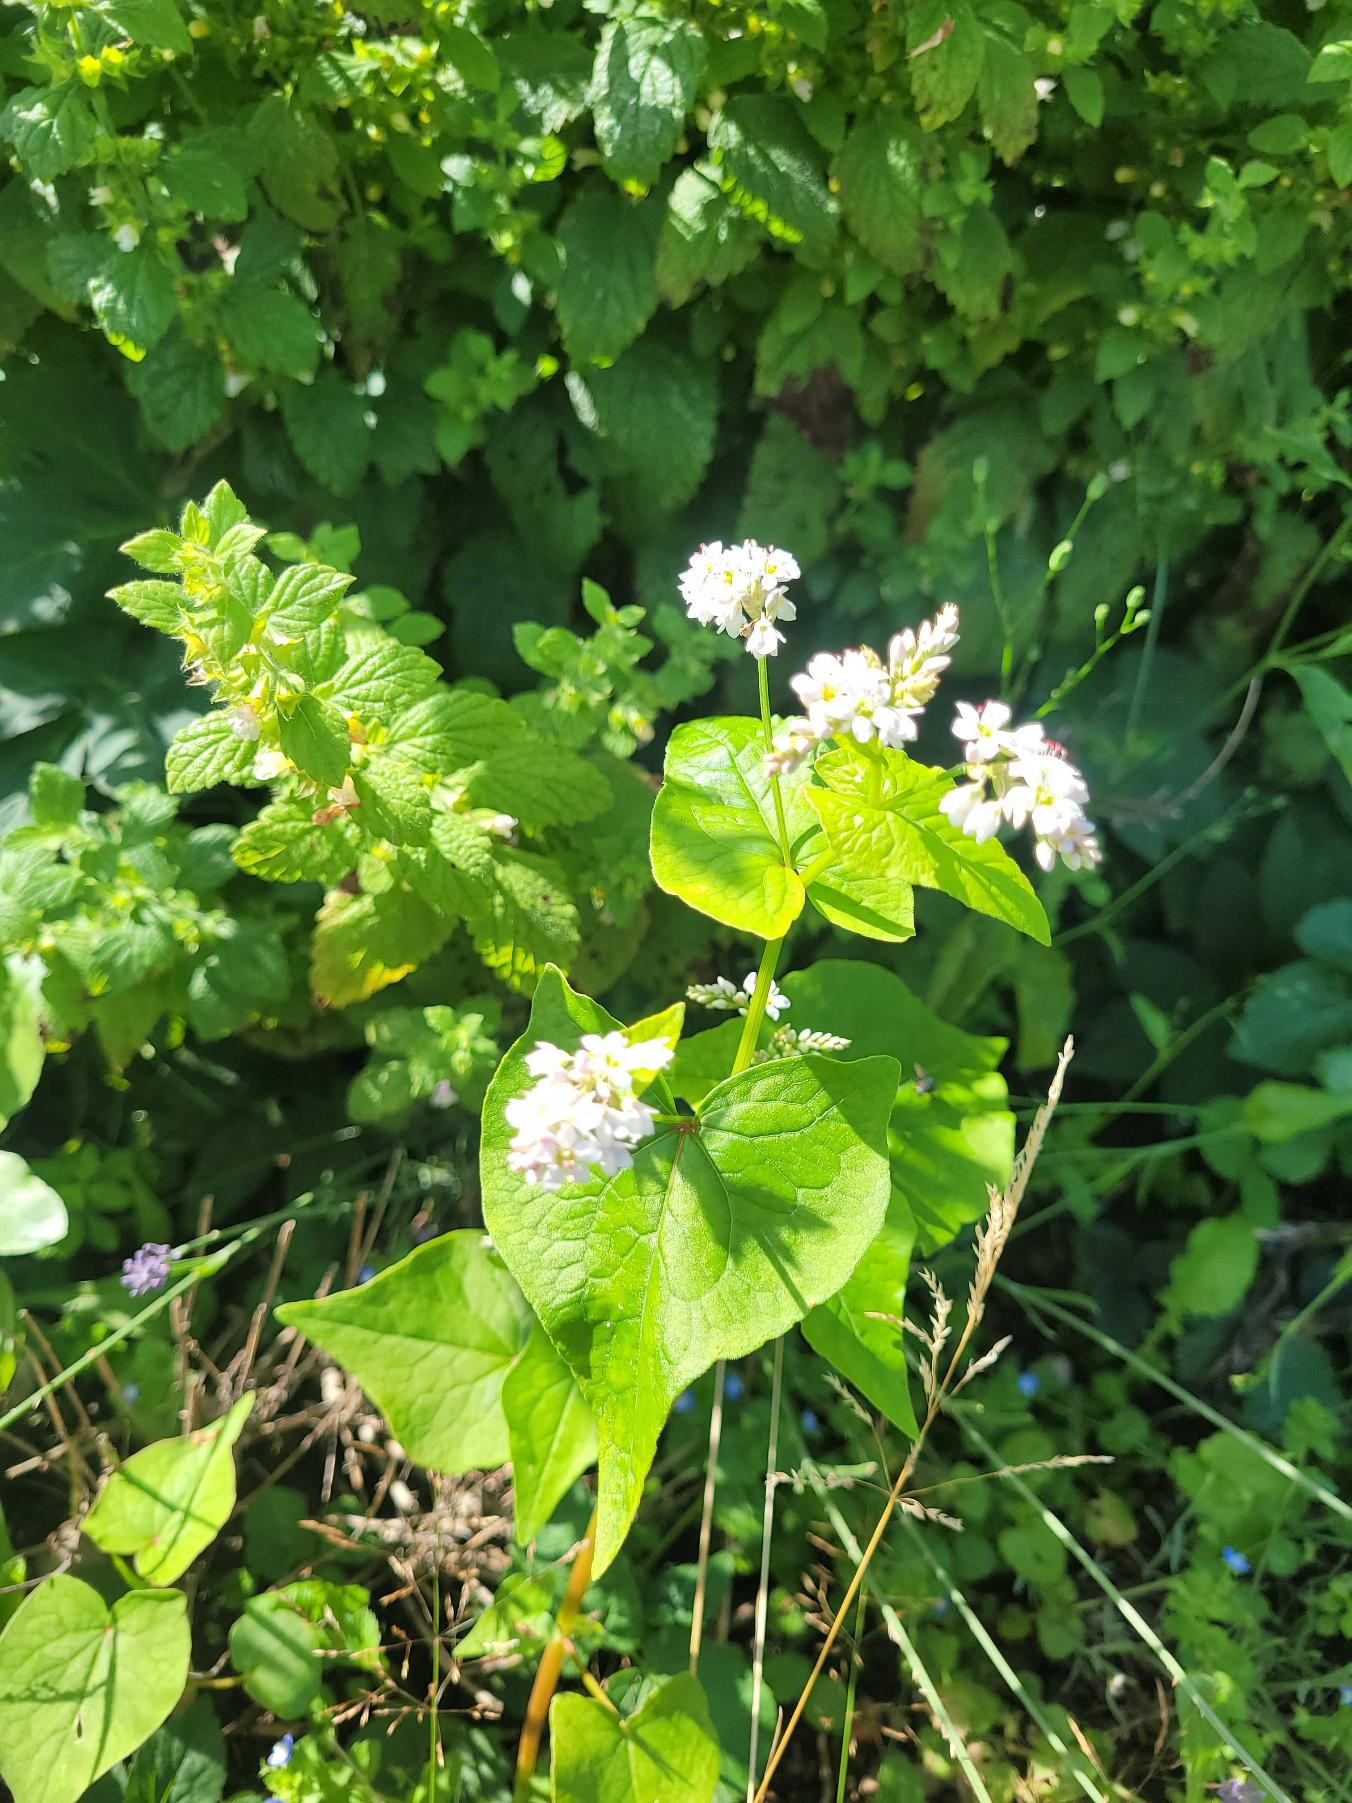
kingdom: Plantae
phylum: Tracheophyta
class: Magnoliopsida
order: Caryophyllales
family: Polygonaceae
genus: Fagopyrum
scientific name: Fagopyrum esculentum
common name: Almindelig boghvede
